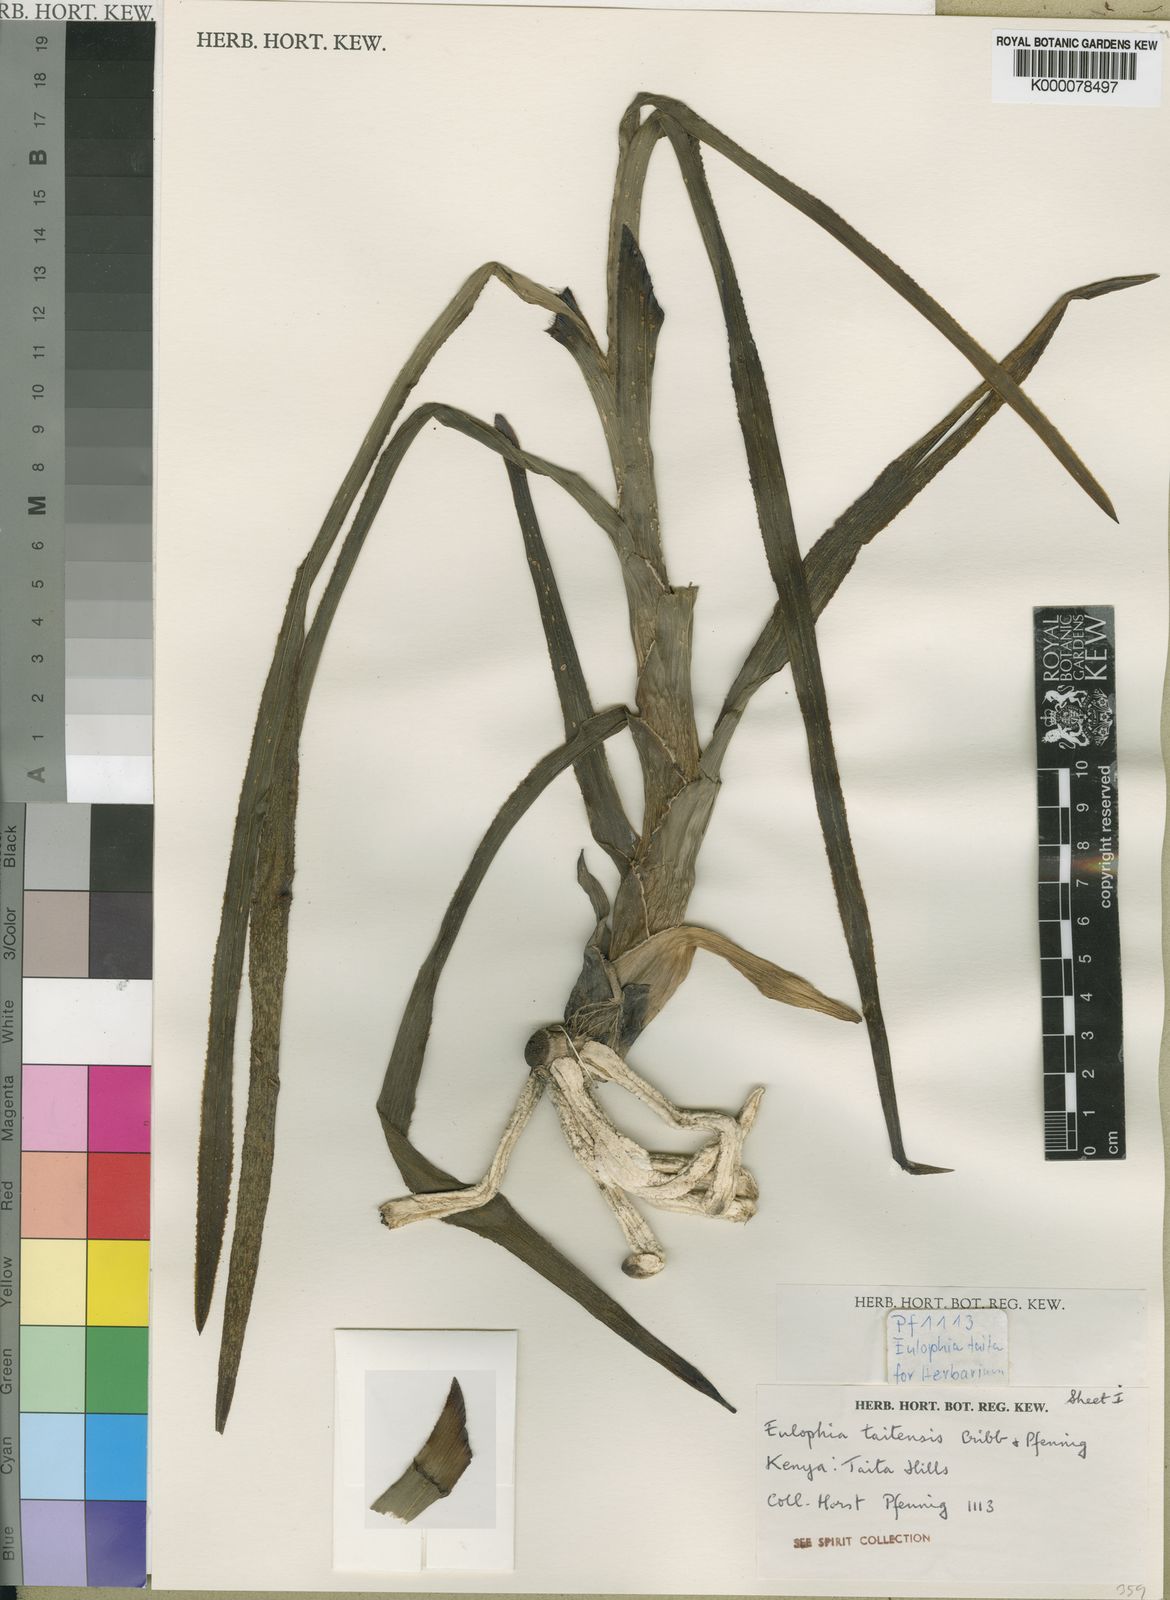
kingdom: Plantae
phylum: Tracheophyta
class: Liliopsida
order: Asparagales
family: Orchidaceae
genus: Eulophia
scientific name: Eulophia taitensis
